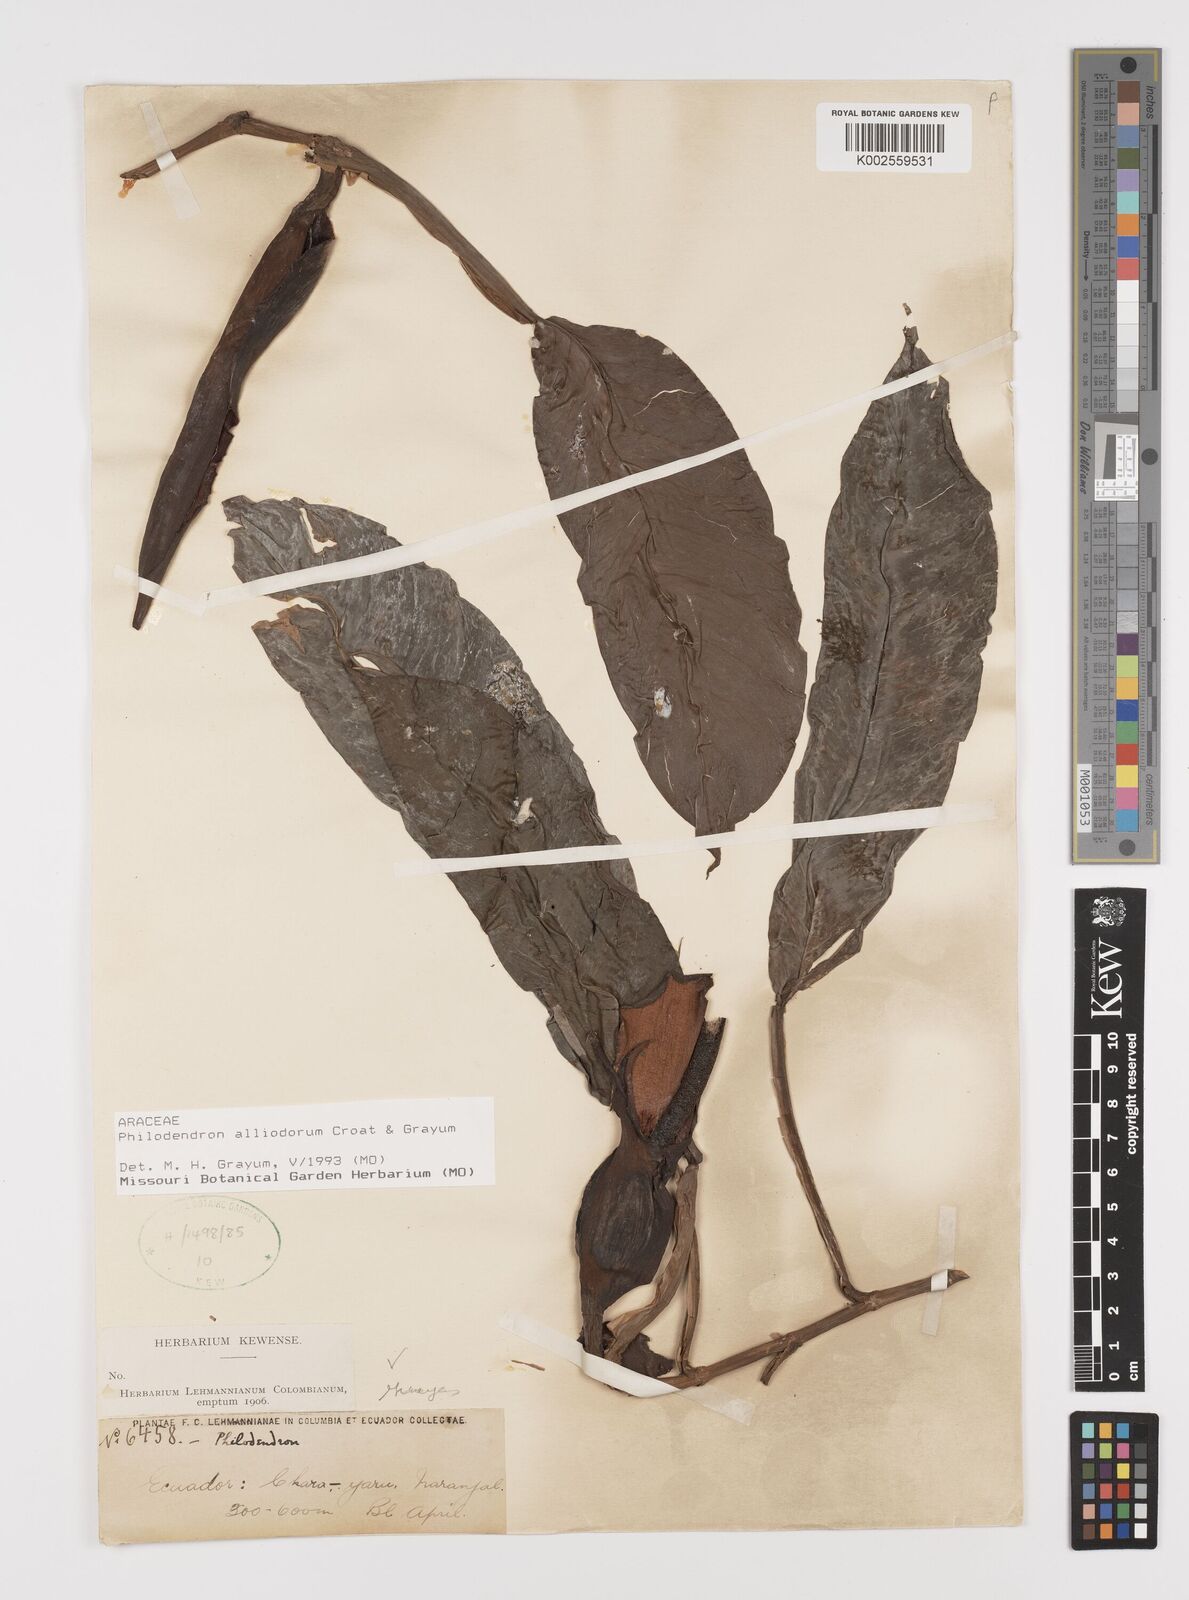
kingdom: Plantae
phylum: Tracheophyta
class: Liliopsida
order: Alismatales
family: Araceae
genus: Philodendron
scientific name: Philodendron alliodorum
